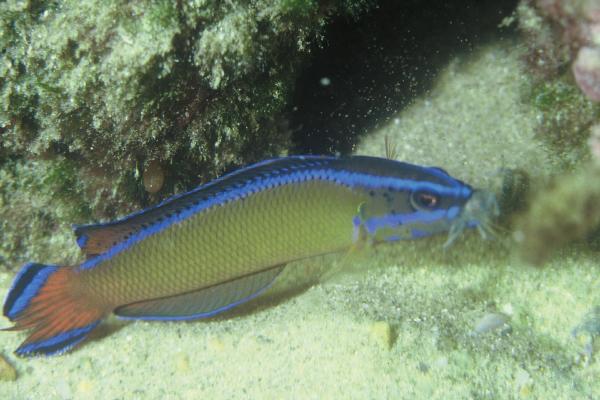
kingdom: Animalia
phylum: Chordata
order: Perciformes
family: Pseudochromidae
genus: Pseudochromis
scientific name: Pseudochromis dutoiti
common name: Dutoiti
